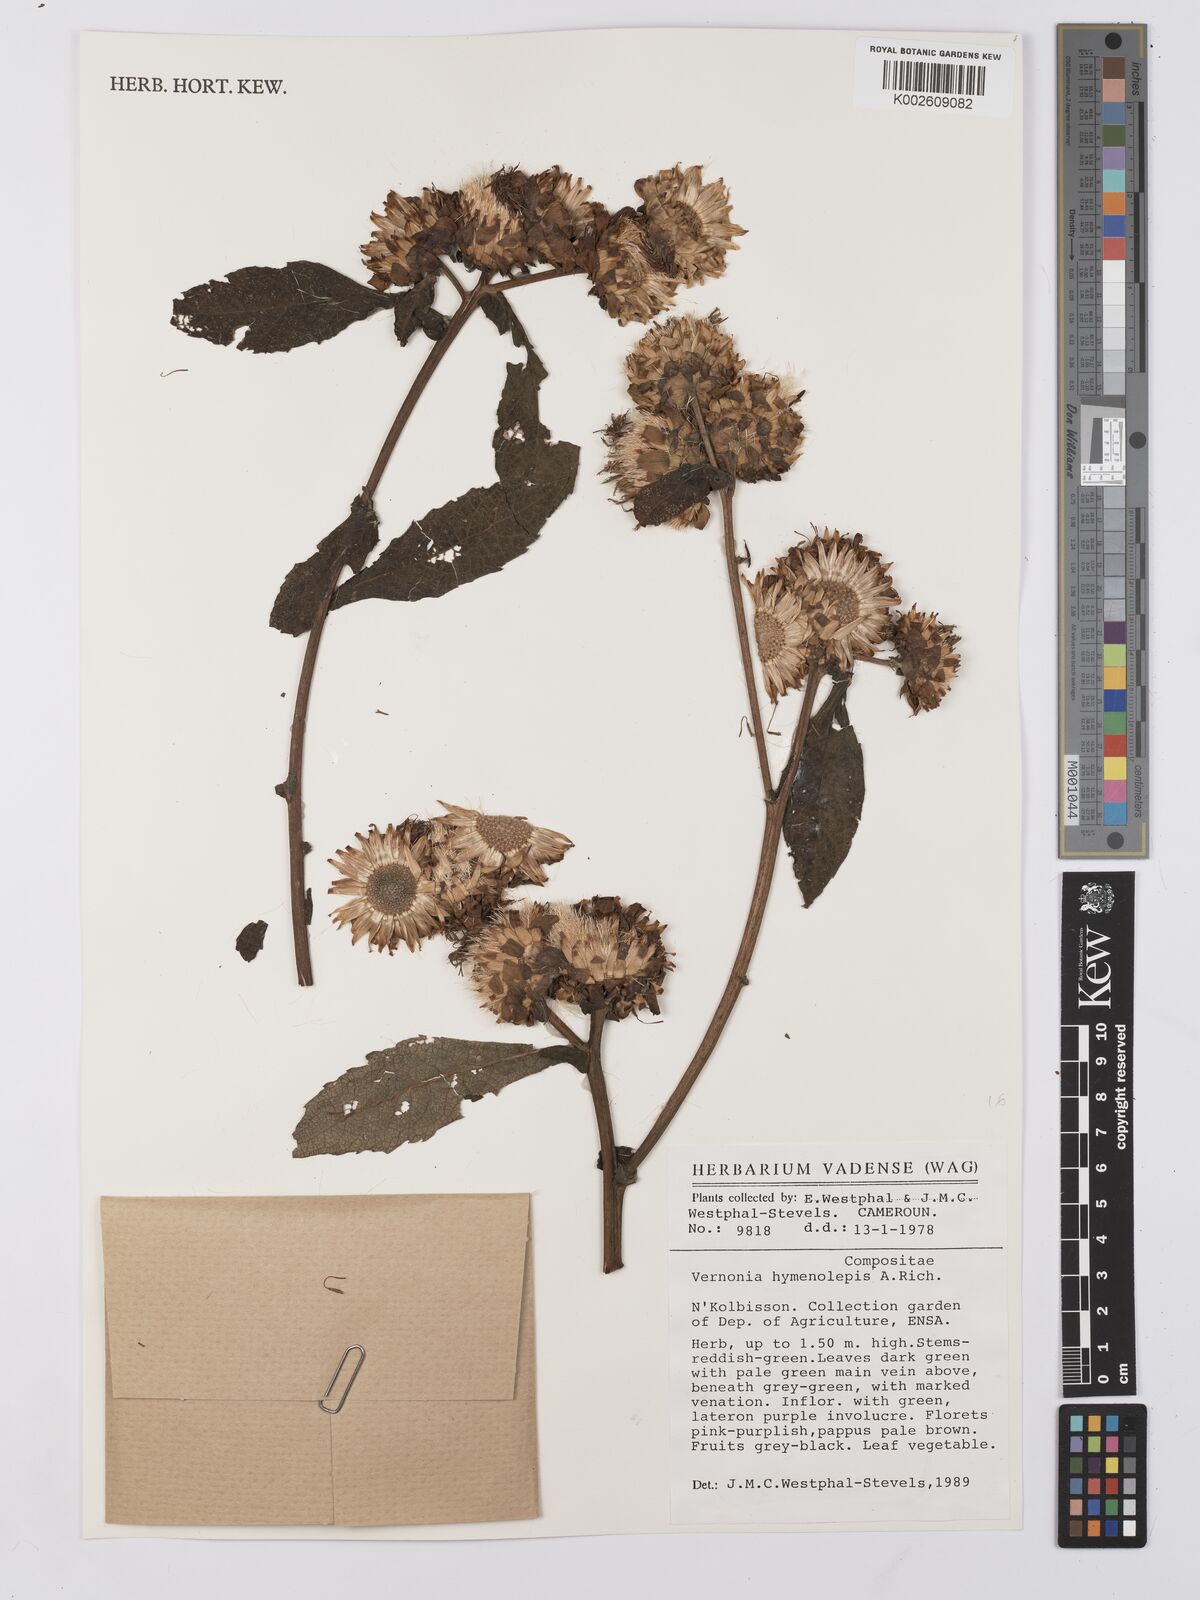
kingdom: Plantae
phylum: Tracheophyta
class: Magnoliopsida
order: Asterales
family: Asteraceae
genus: Baccharoides
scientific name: Baccharoides hymenolepis
